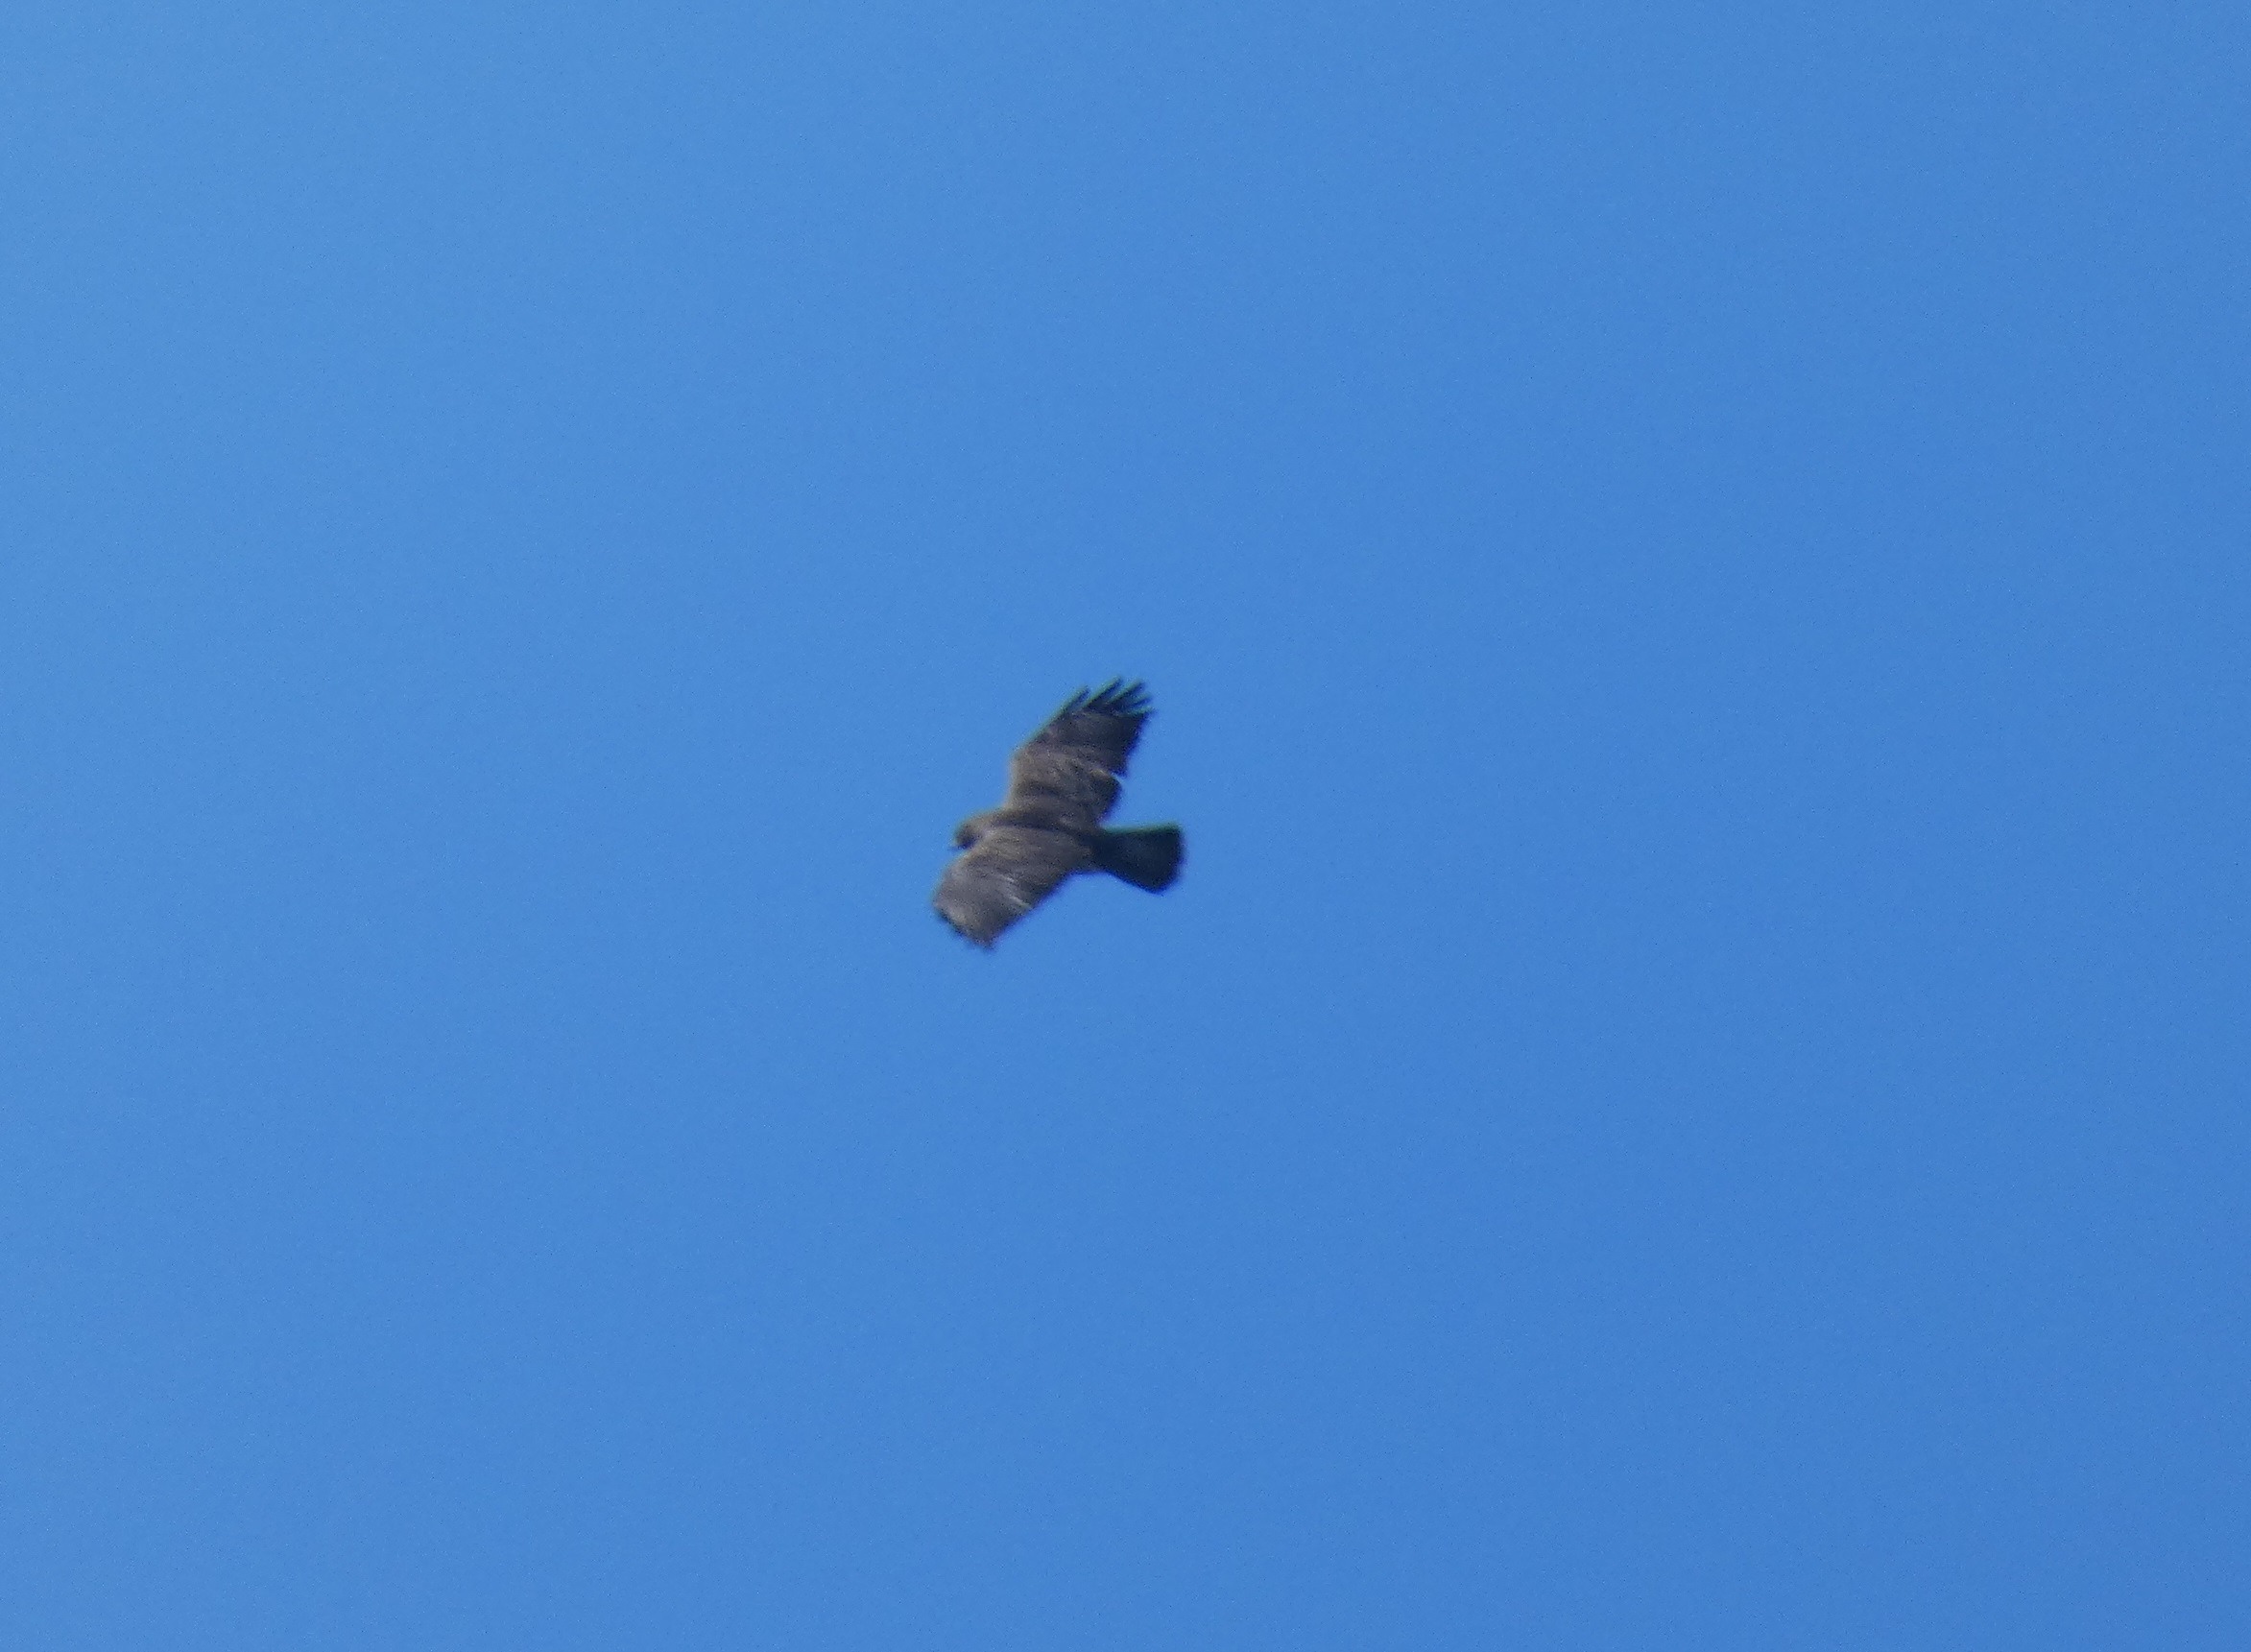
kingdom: Animalia
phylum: Chordata
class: Aves
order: Accipitriformes
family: Accipitridae
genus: Buteo
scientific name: Buteo buteo
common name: Musvåge
